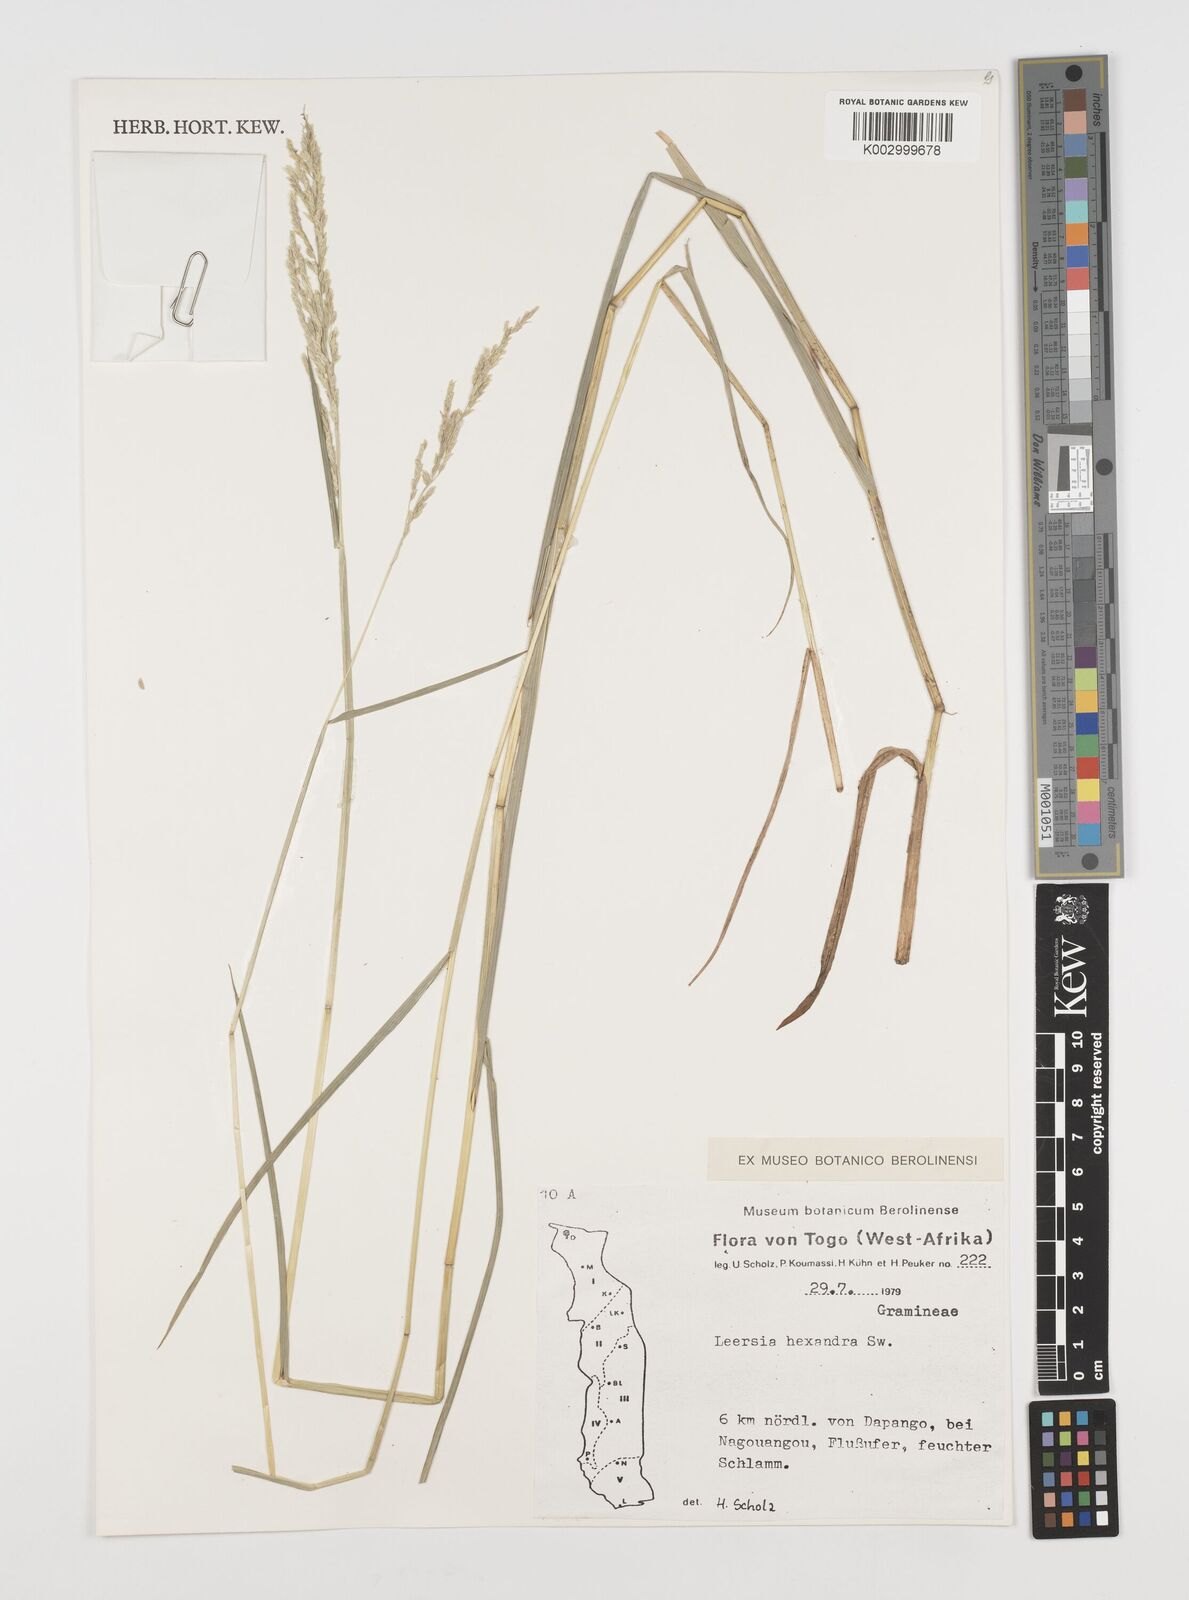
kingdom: Plantae
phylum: Tracheophyta
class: Liliopsida
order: Poales
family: Poaceae
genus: Leersia
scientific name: Leersia hexandra
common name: Southern cut grass
